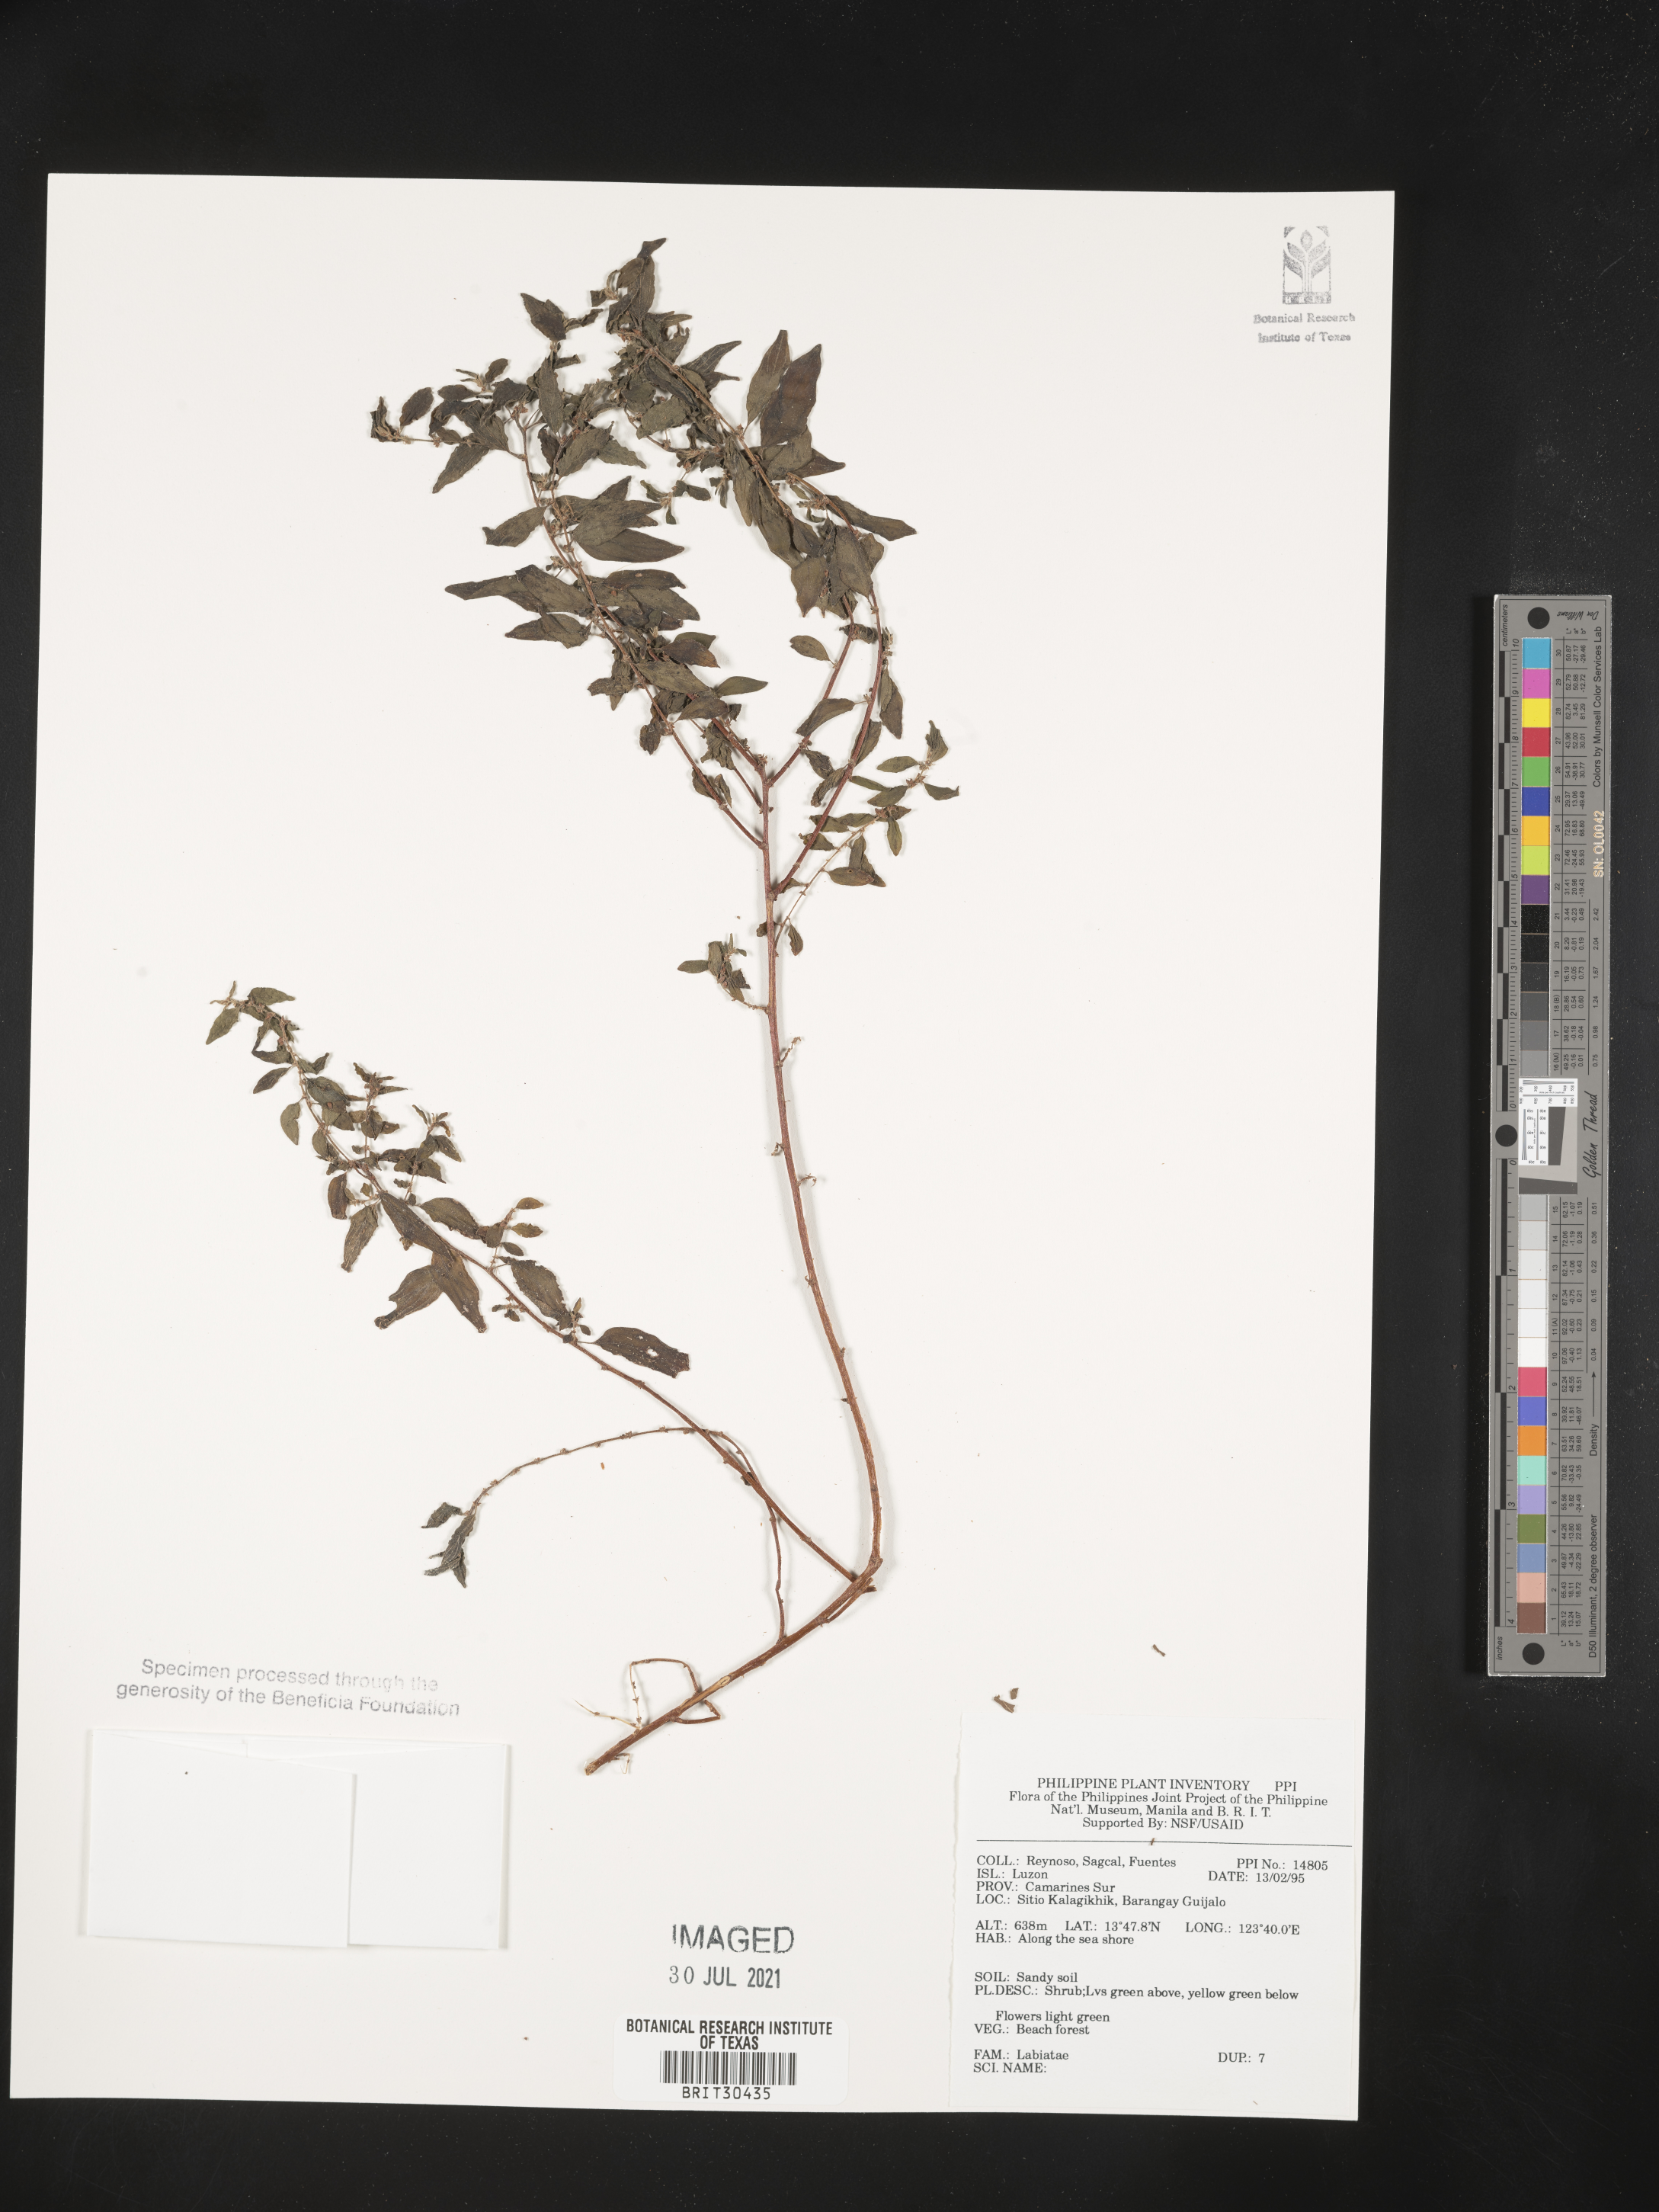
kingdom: Plantae
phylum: Tracheophyta
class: Magnoliopsida
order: Lamiales
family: Lamiaceae
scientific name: Lamiaceae
